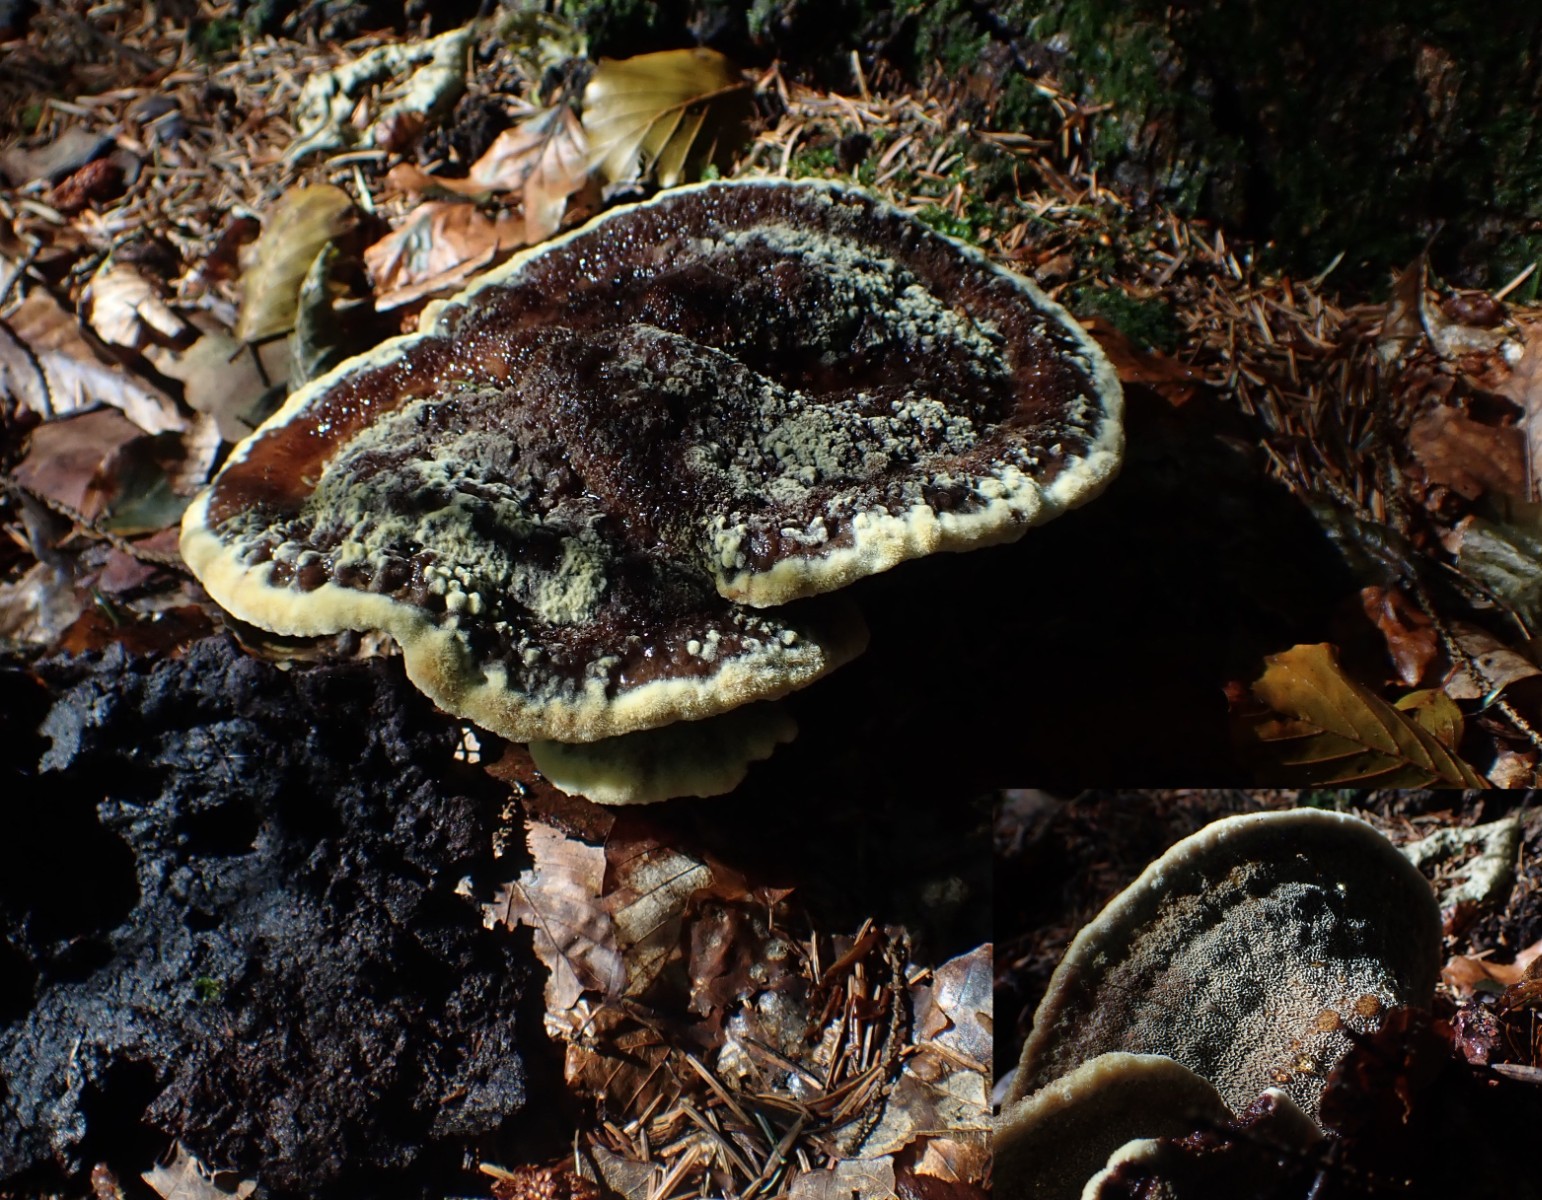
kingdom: Fungi
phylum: Basidiomycota
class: Agaricomycetes
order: Polyporales
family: Laetiporaceae
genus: Phaeolus
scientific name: Phaeolus schweinitzii
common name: brunporesvamp
